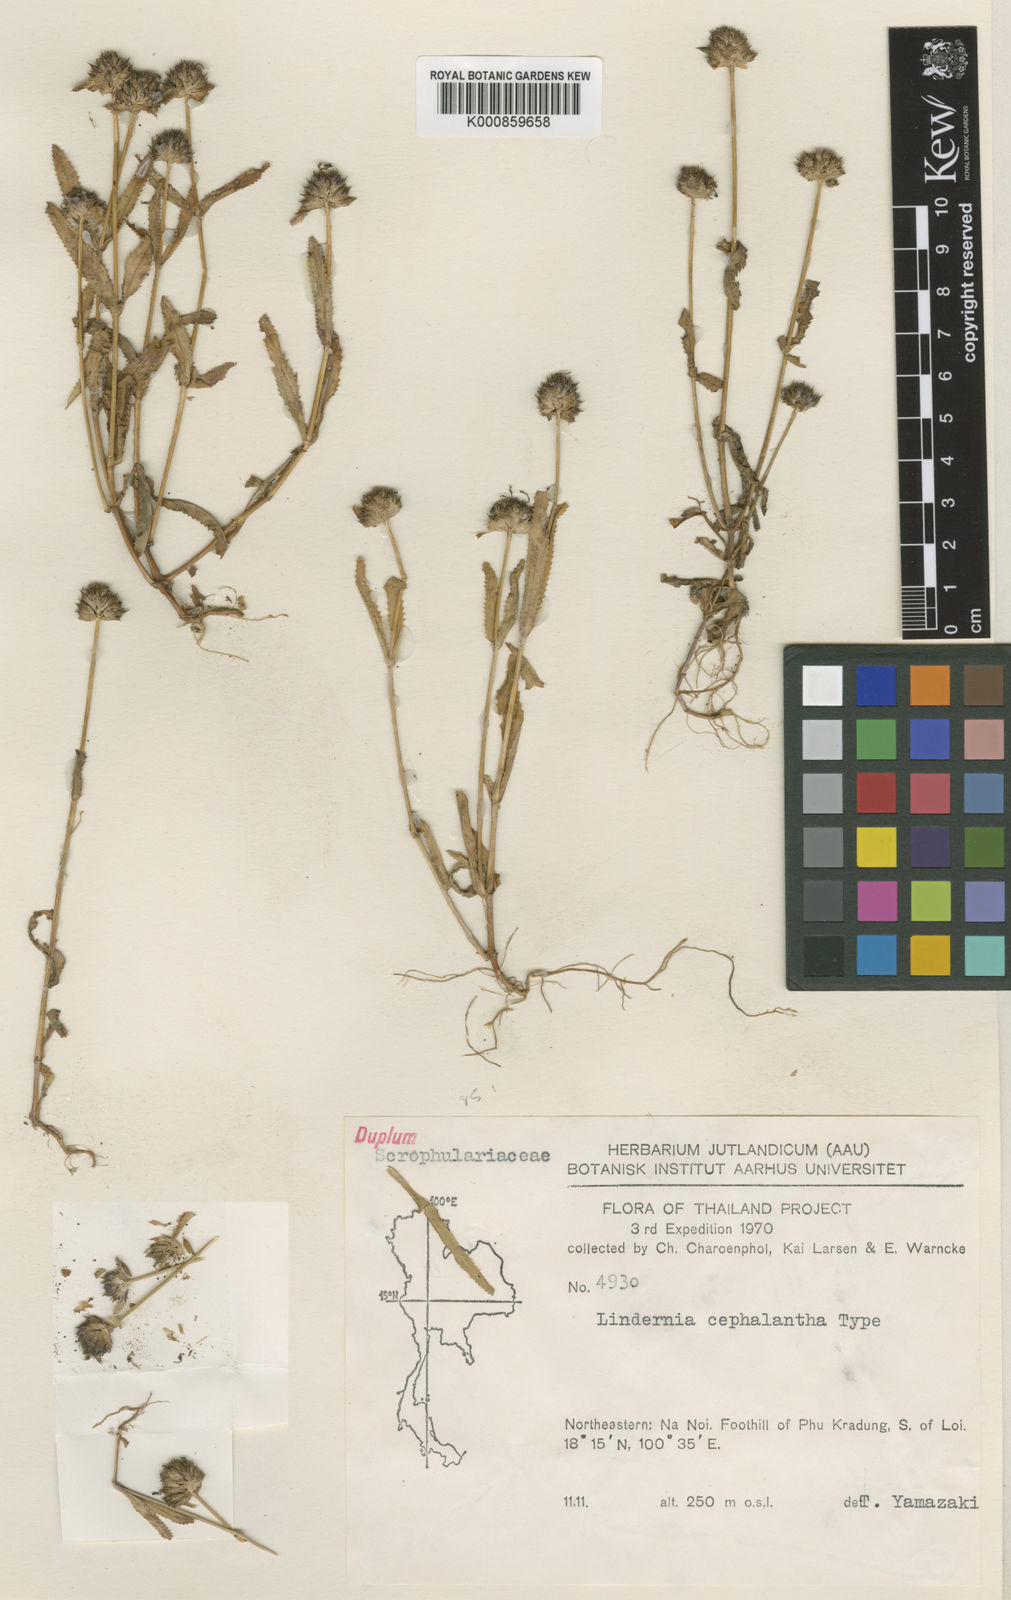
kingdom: Plantae
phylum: Tracheophyta
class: Magnoliopsida
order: Lamiales
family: Linderniaceae
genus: Bonnaya
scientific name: Bonnaya cephalantha
